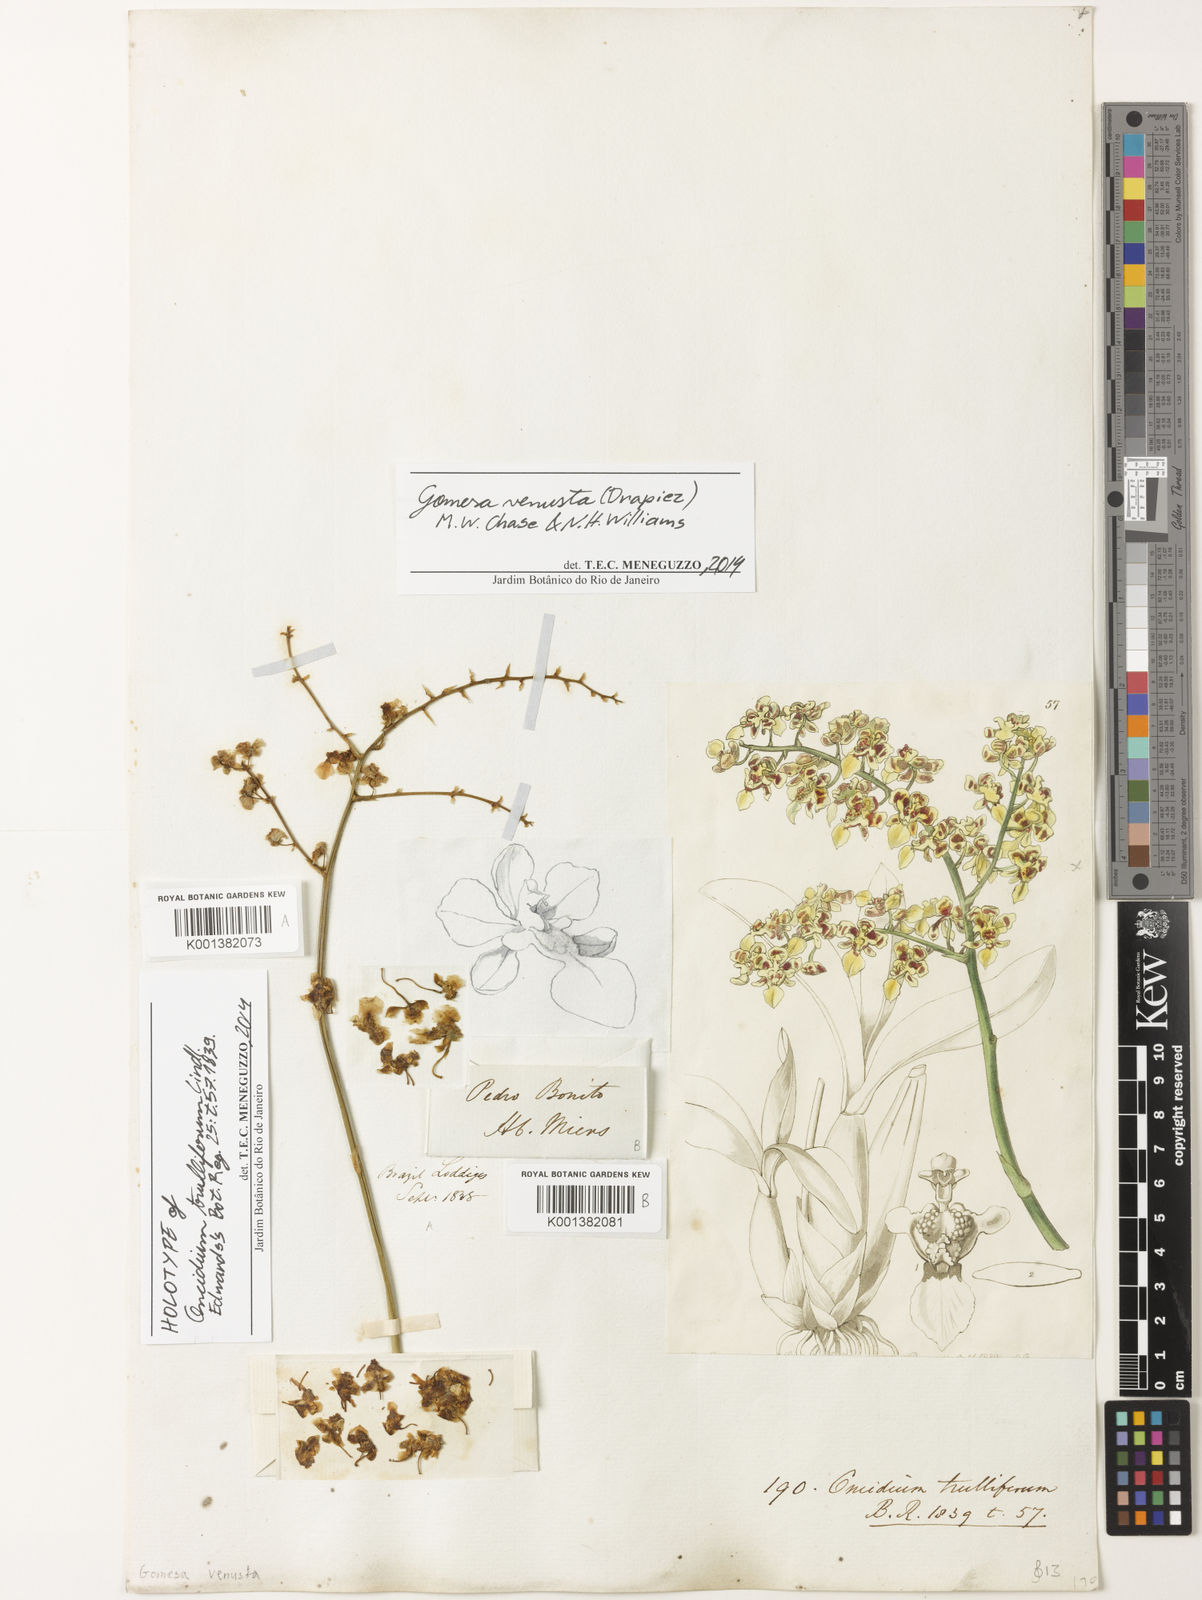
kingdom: Plantae
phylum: Tracheophyta
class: Liliopsida
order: Asparagales
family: Orchidaceae
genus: Gomesa
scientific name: Gomesa venusta
